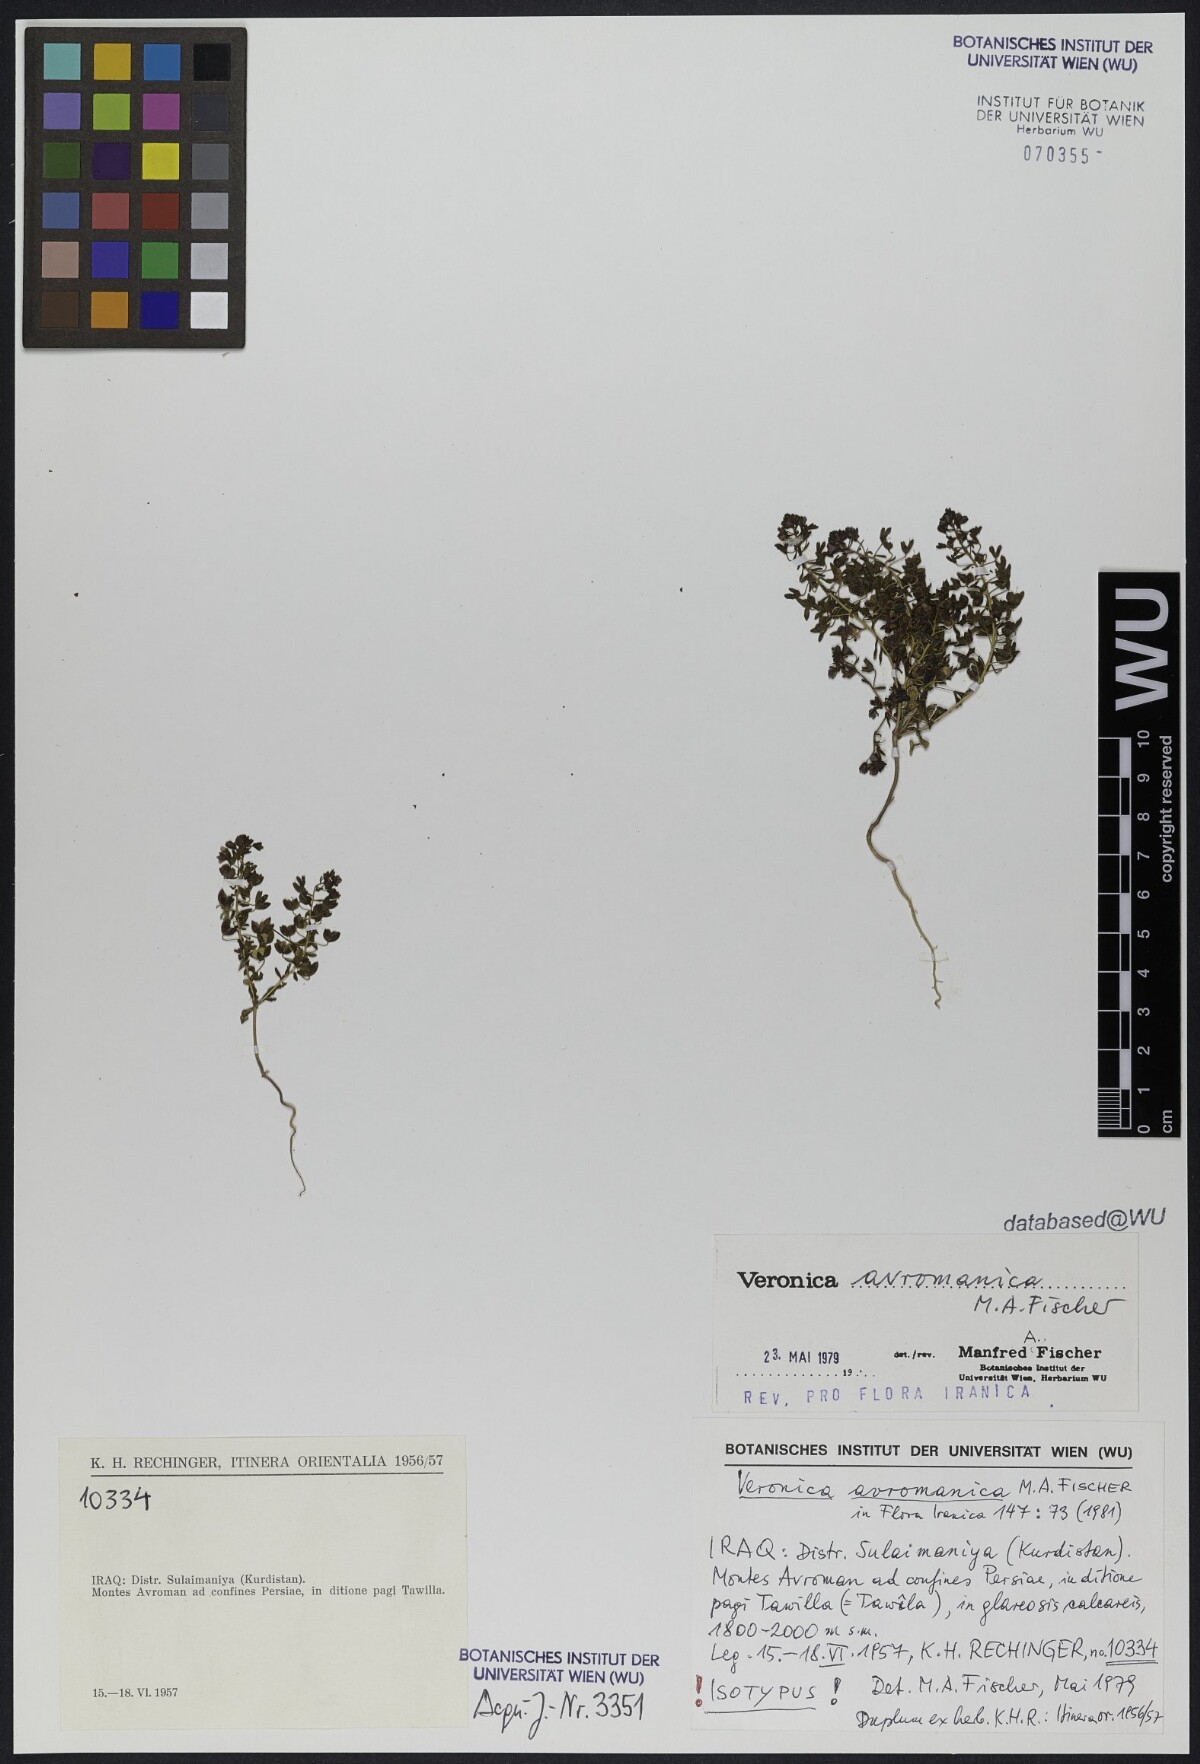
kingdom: Plantae
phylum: Tracheophyta
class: Magnoliopsida
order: Lamiales
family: Plantaginaceae
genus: Veronica
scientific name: Veronica avromanica
